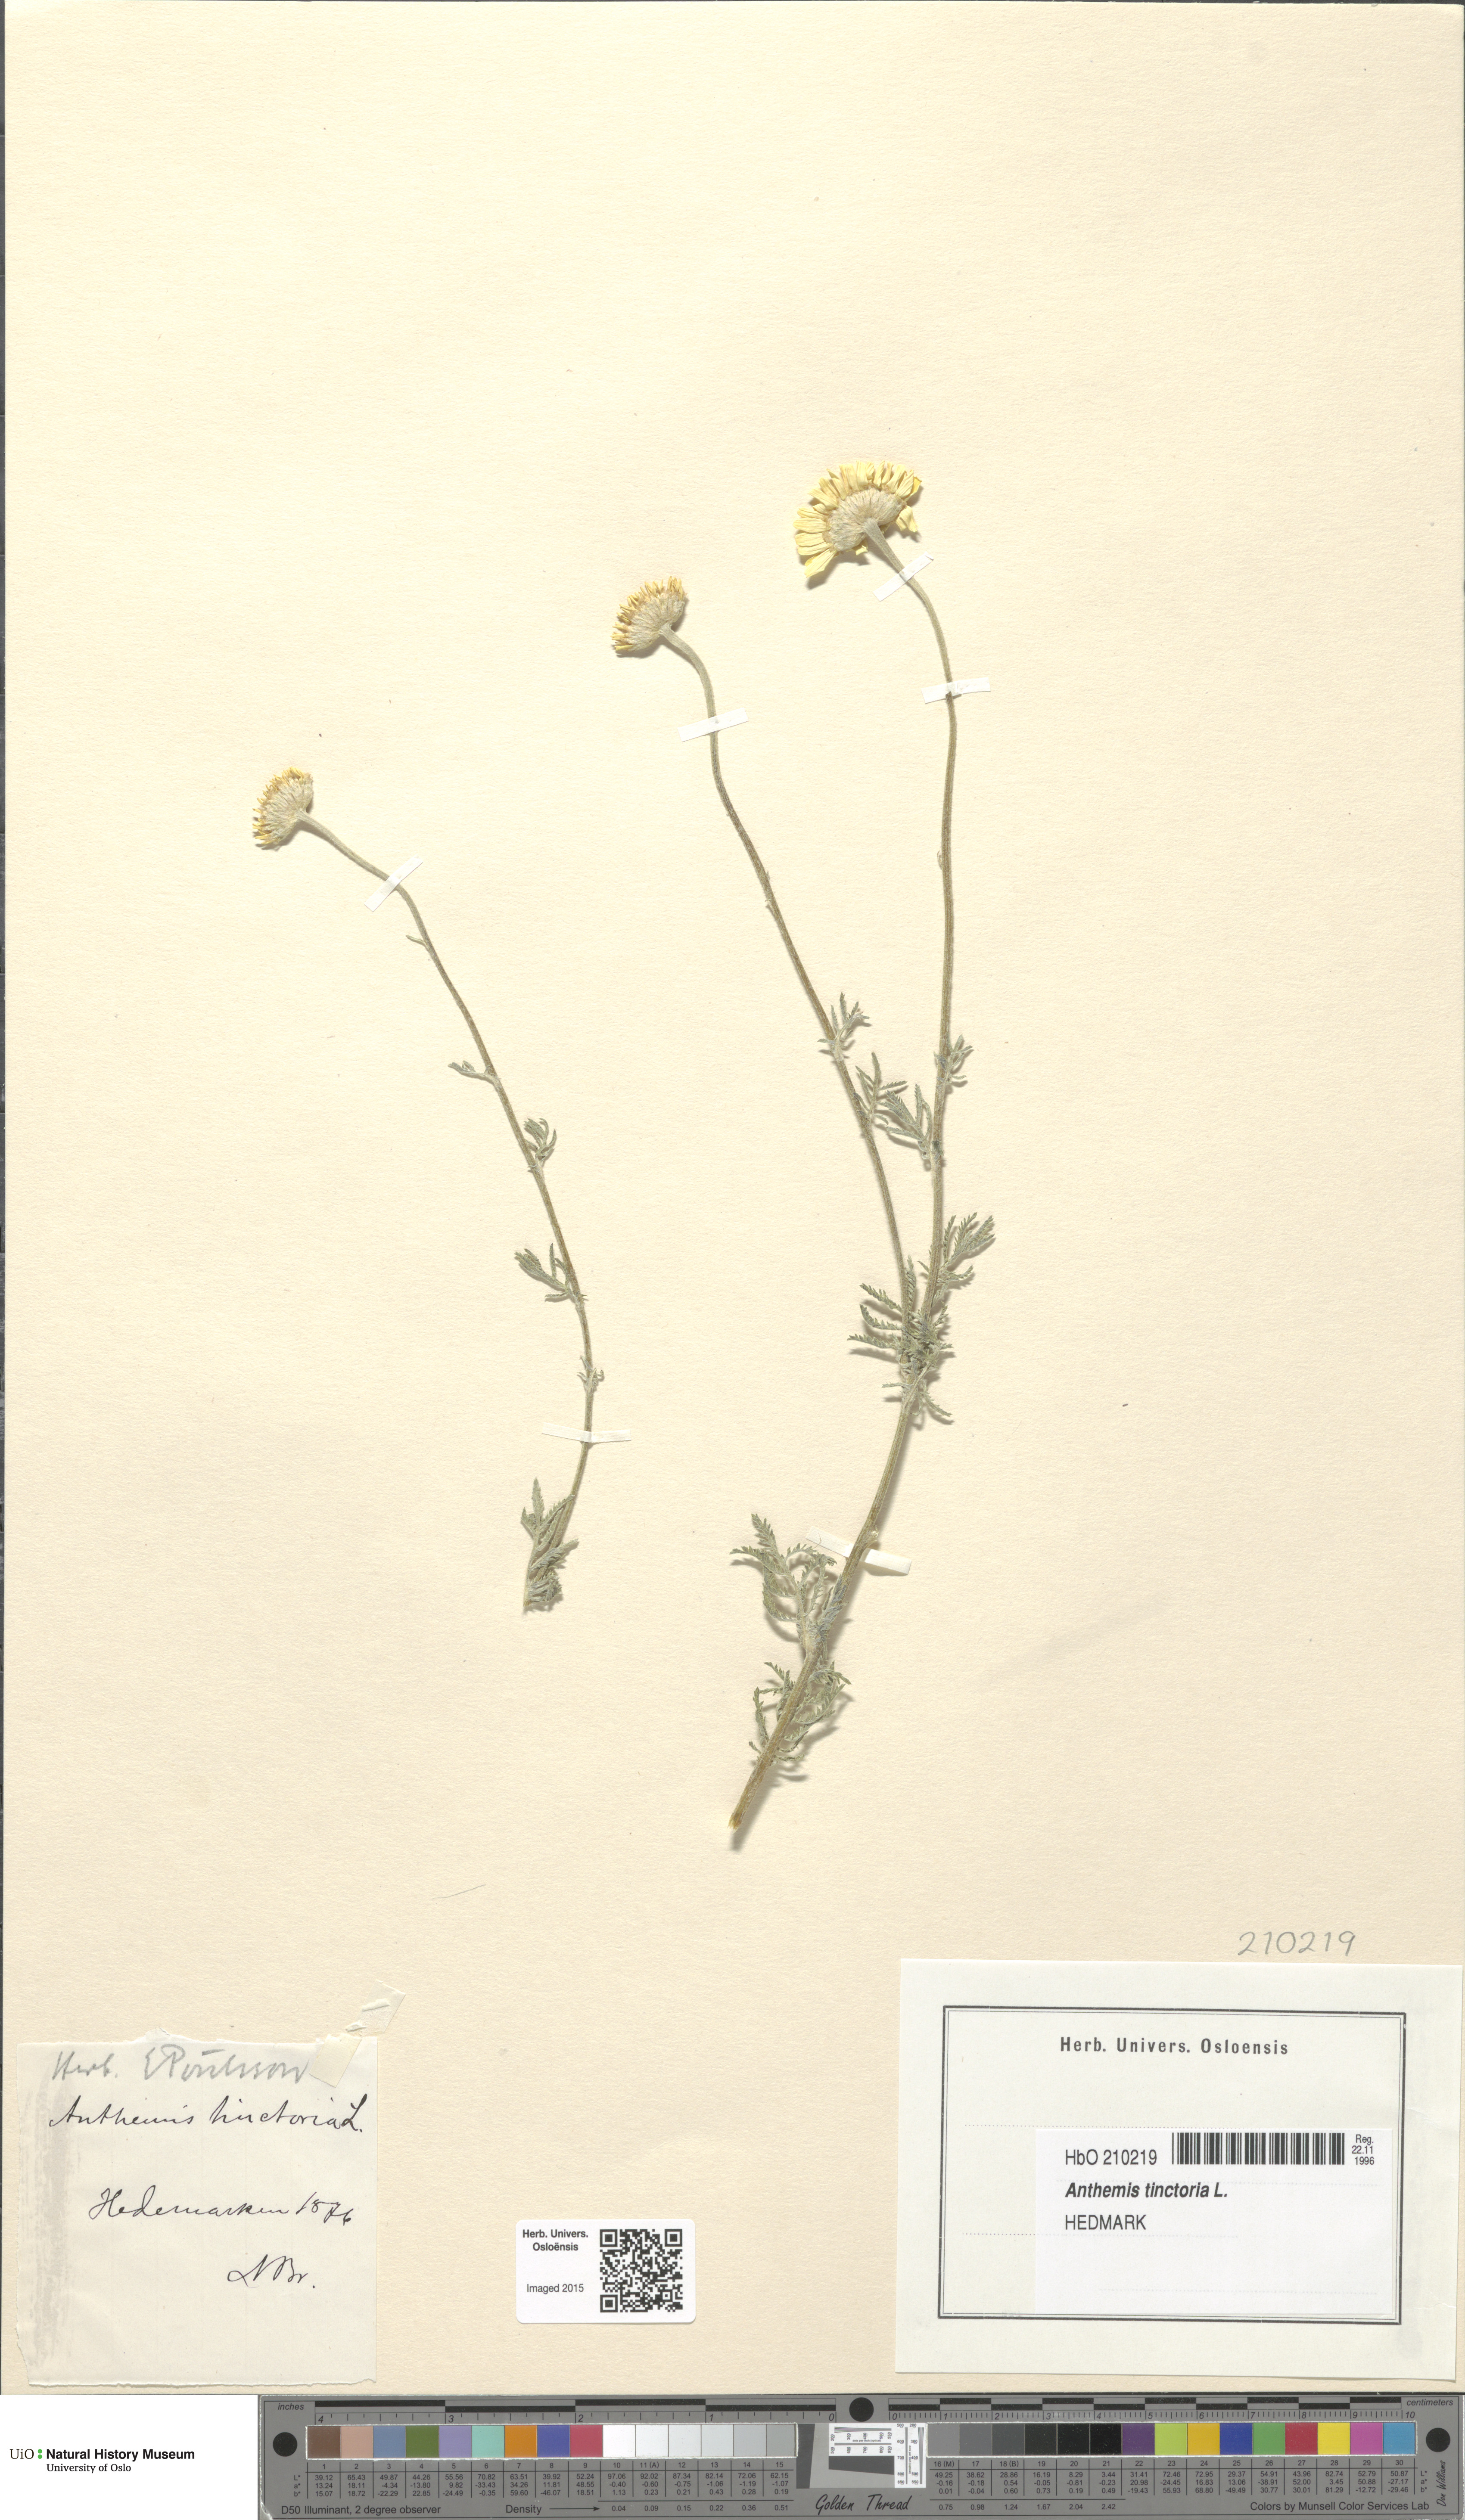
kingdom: Plantae
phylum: Tracheophyta
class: Magnoliopsida
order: Asterales
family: Asteraceae
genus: Cota
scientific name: Cota tinctoria
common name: Golden chamomile
